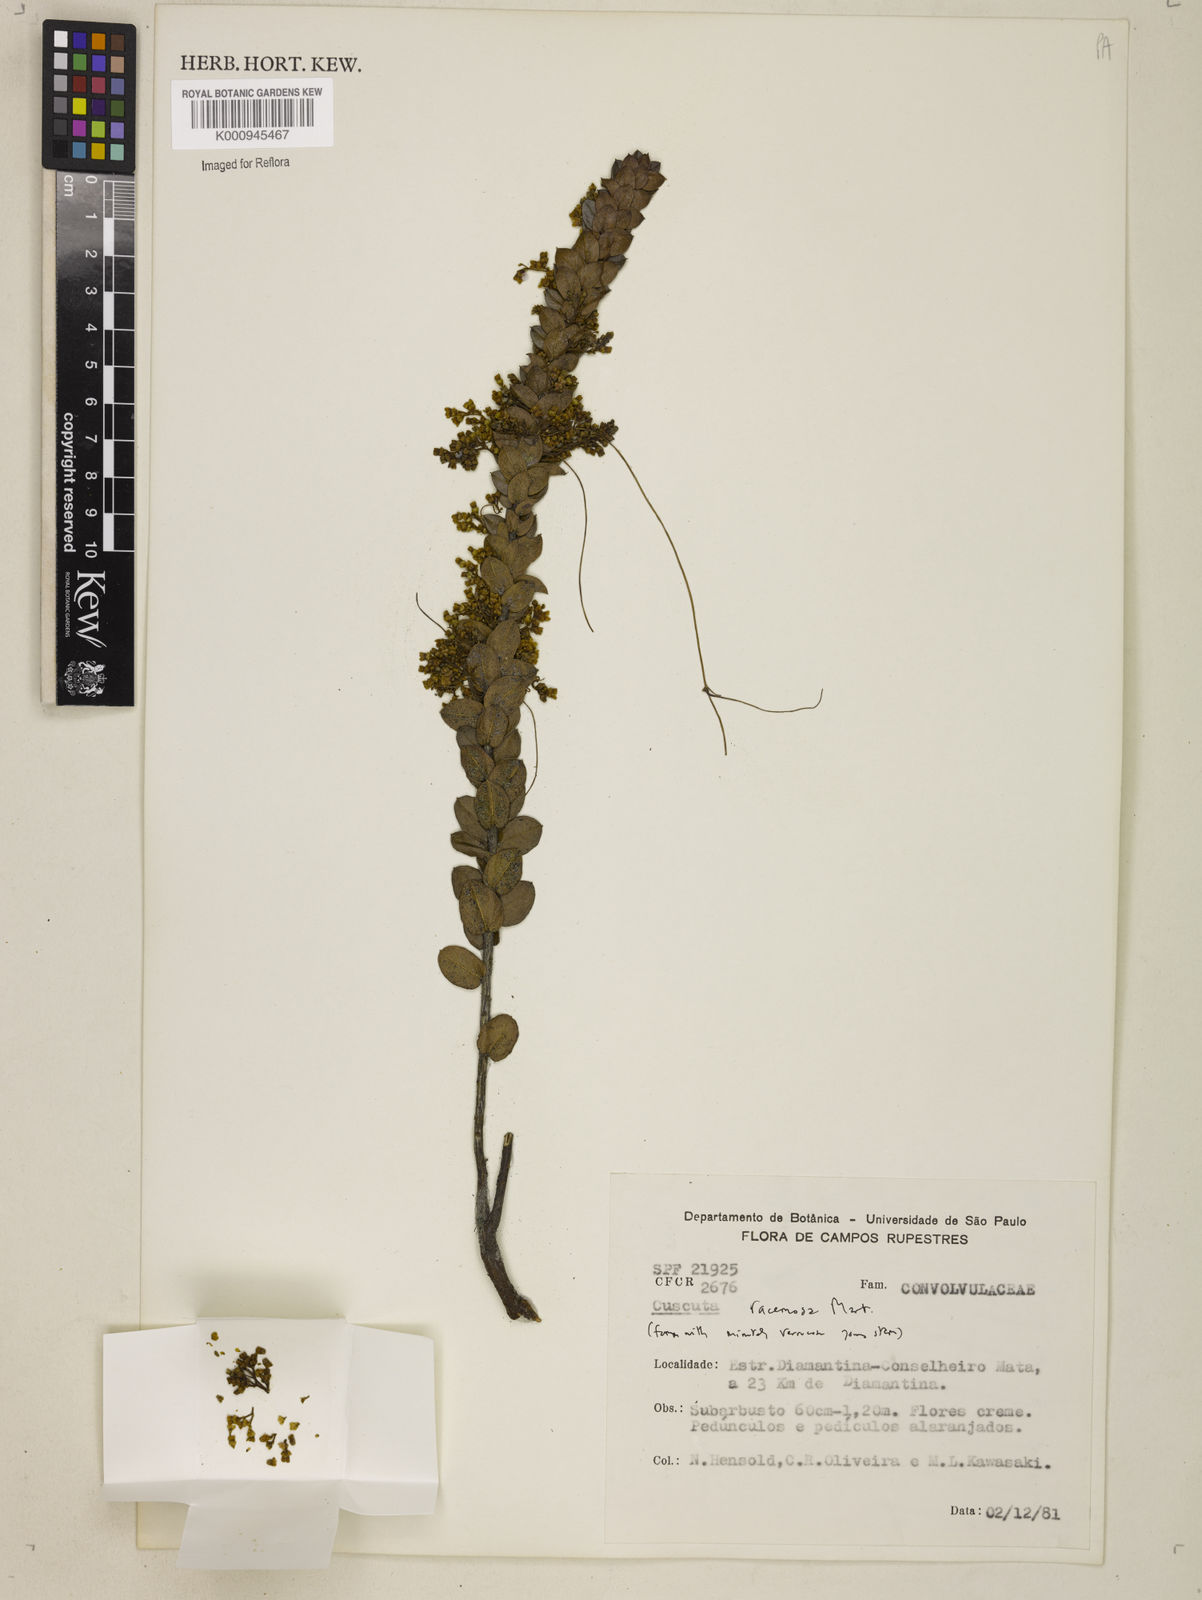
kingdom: Plantae
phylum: Tracheophyta
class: Magnoliopsida
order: Solanales
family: Convolvulaceae
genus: Cuscuta
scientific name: Cuscuta racemosa
